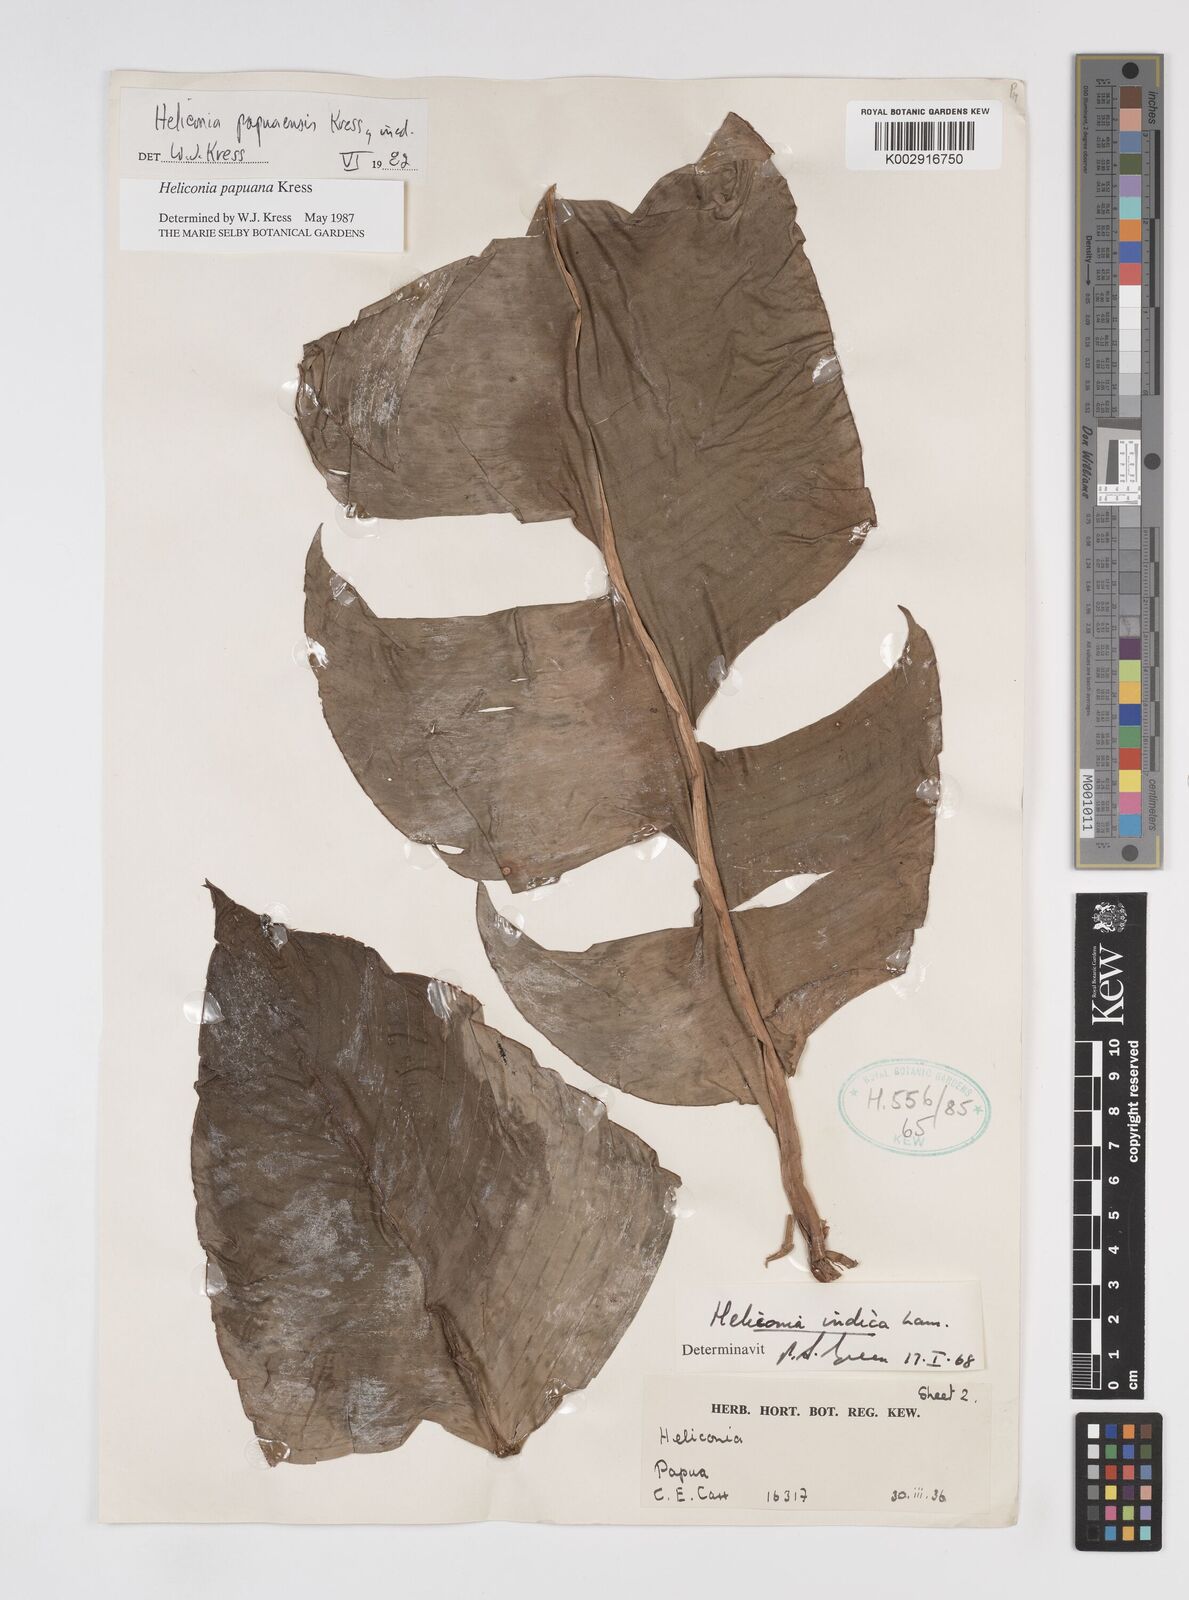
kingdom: Plantae
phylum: Tracheophyta
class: Liliopsida
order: Zingiberales
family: Heliconiaceae
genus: Heliconia
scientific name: Heliconia papuana
